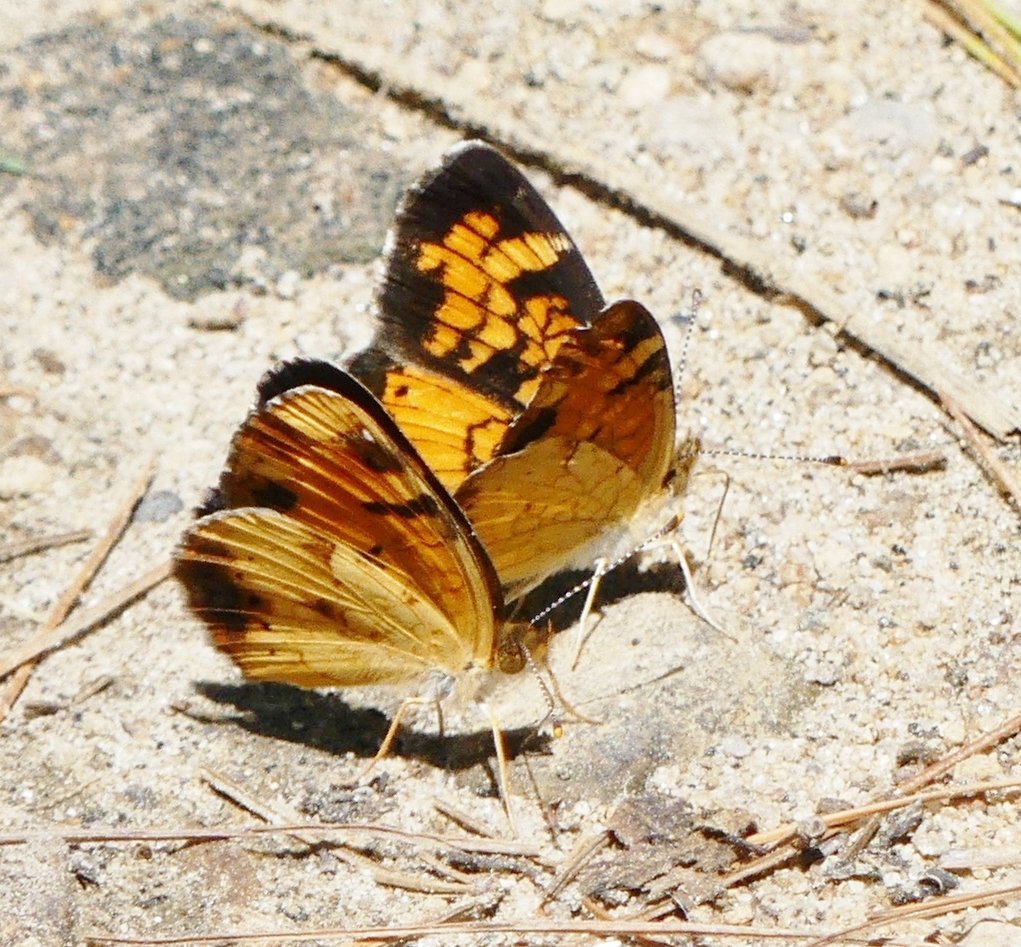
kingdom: Animalia
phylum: Arthropoda
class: Insecta
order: Lepidoptera
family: Nymphalidae
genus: Phyciodes
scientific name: Phyciodes tharos
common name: Northern Crescent
